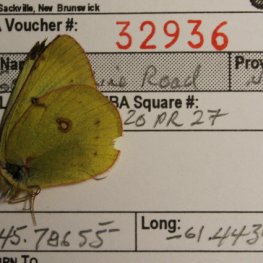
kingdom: Animalia
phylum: Arthropoda
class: Insecta
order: Lepidoptera
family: Pieridae
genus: Colias
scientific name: Colias philodice
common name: Clouded Sulphur
